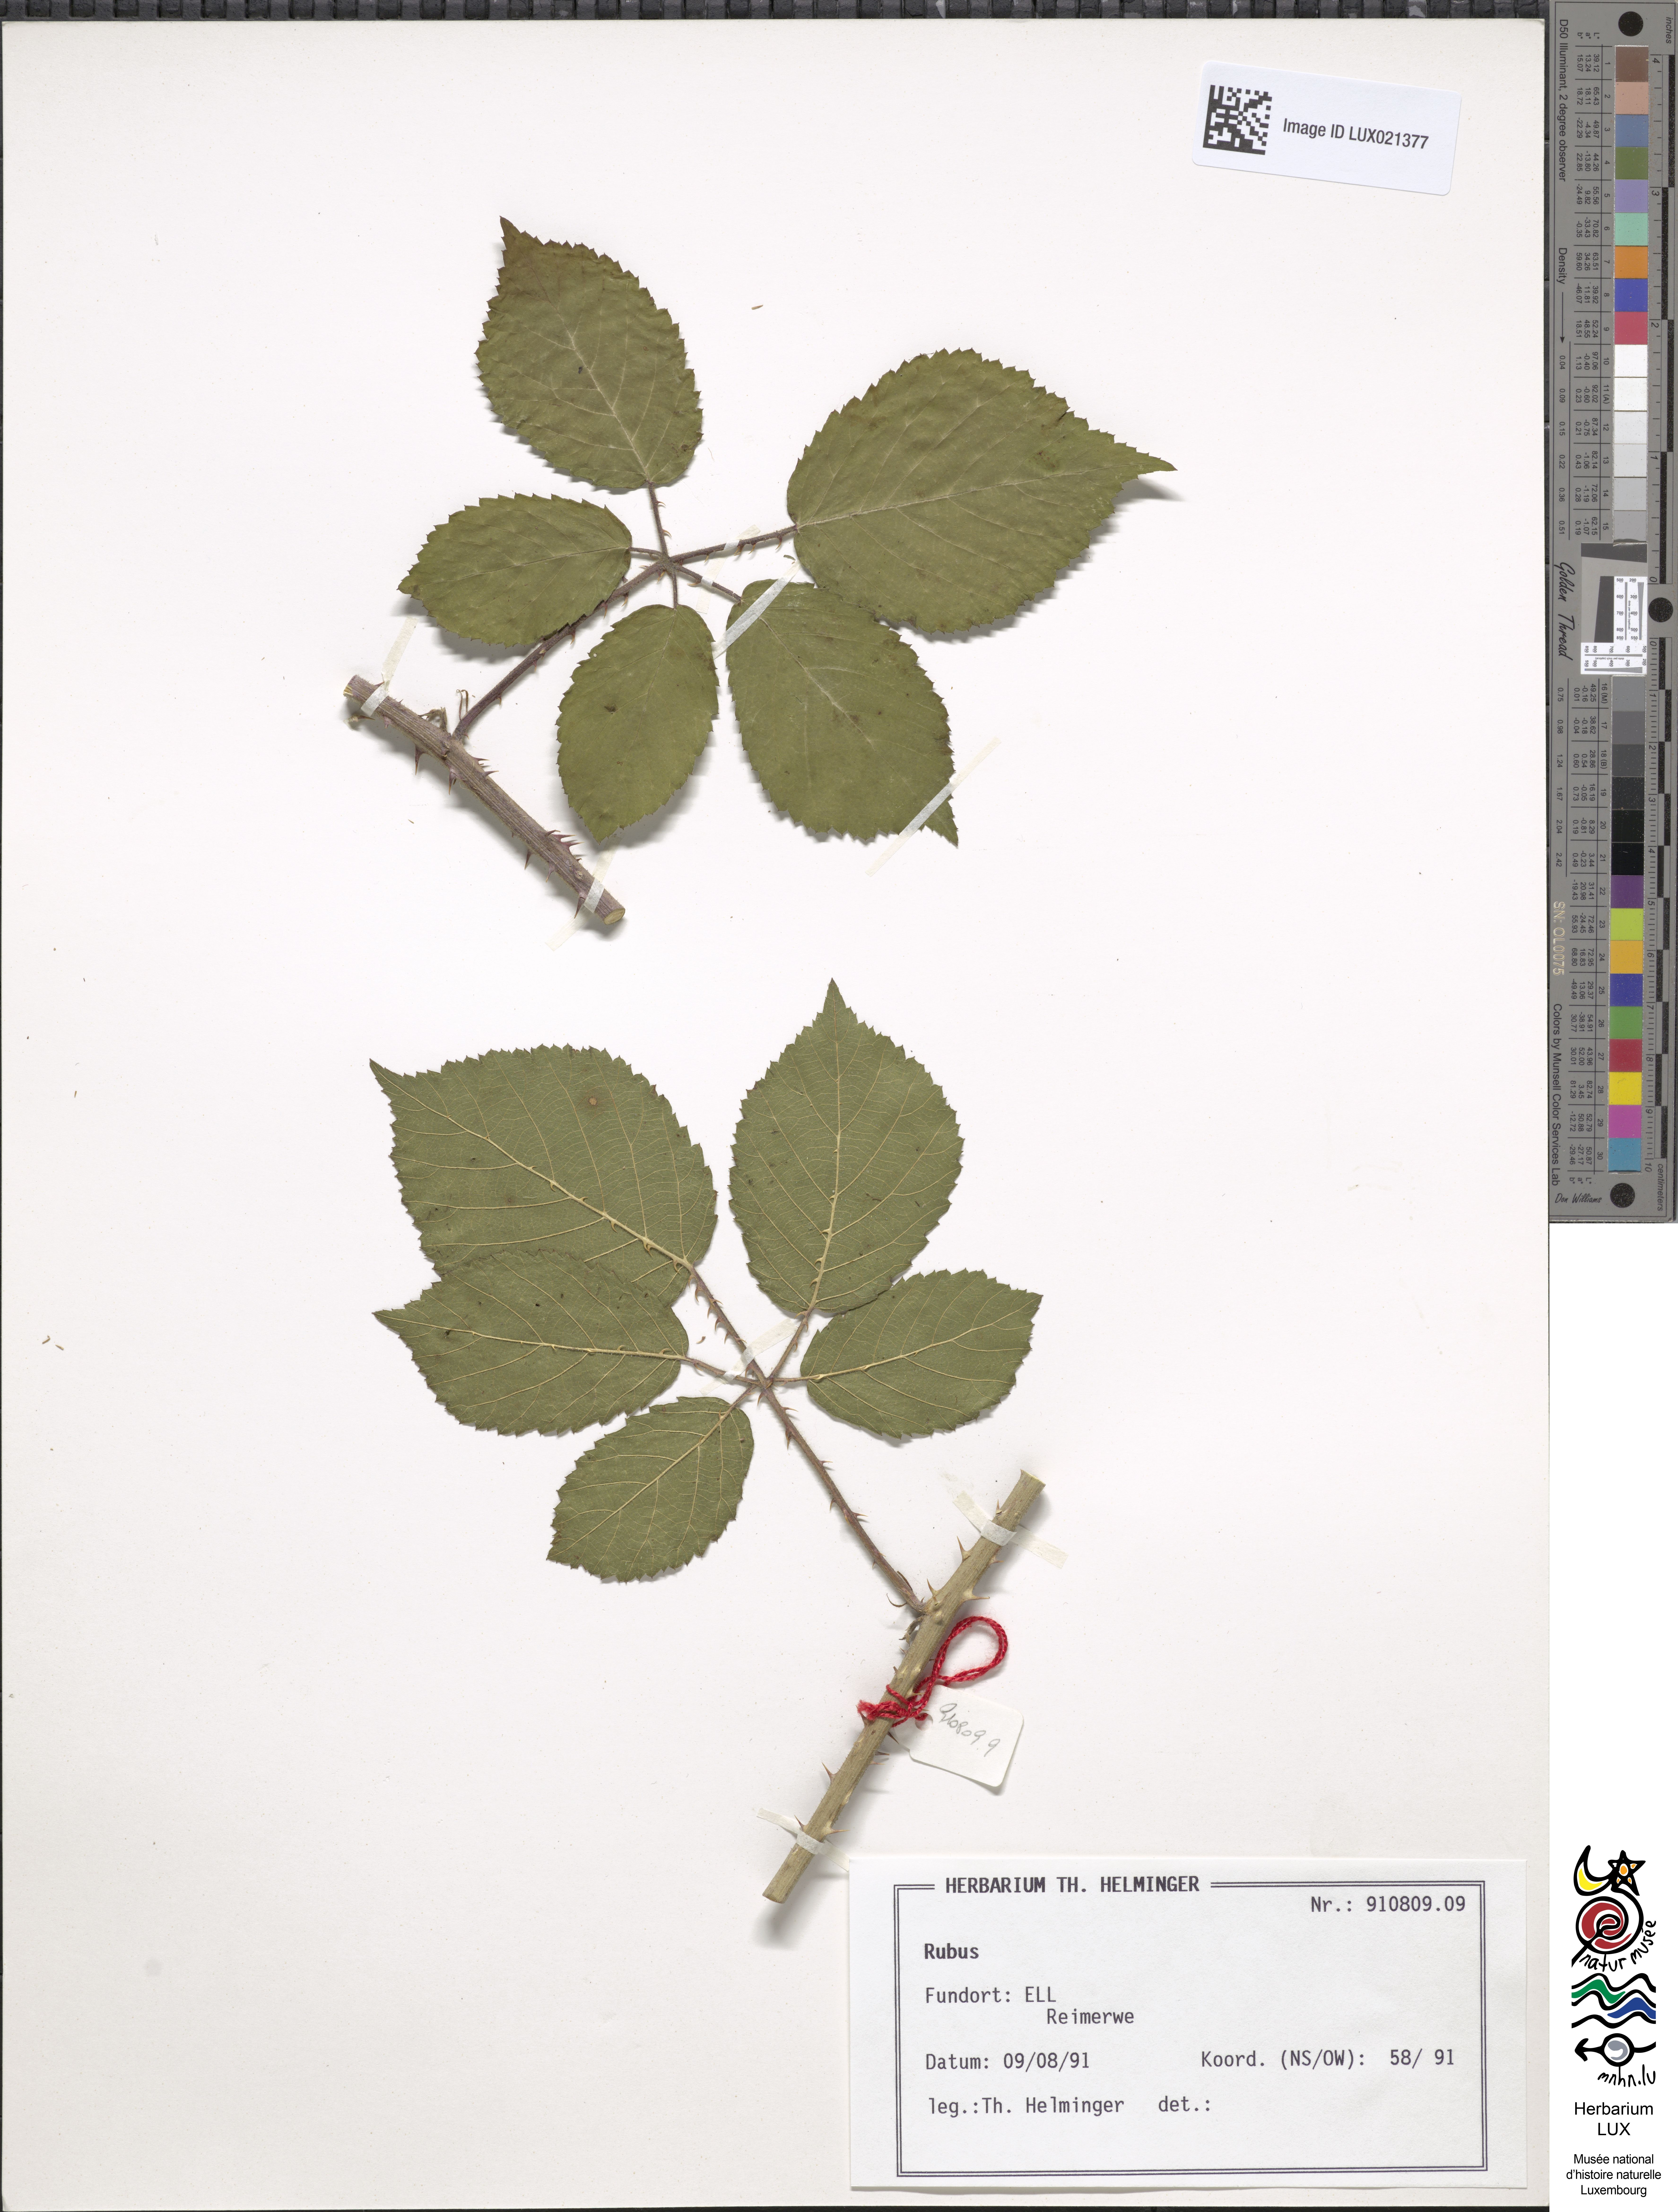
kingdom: Plantae
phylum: Tracheophyta
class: Magnoliopsida
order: Rosales
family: Rosaceae
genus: Rubus
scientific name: Rubus
